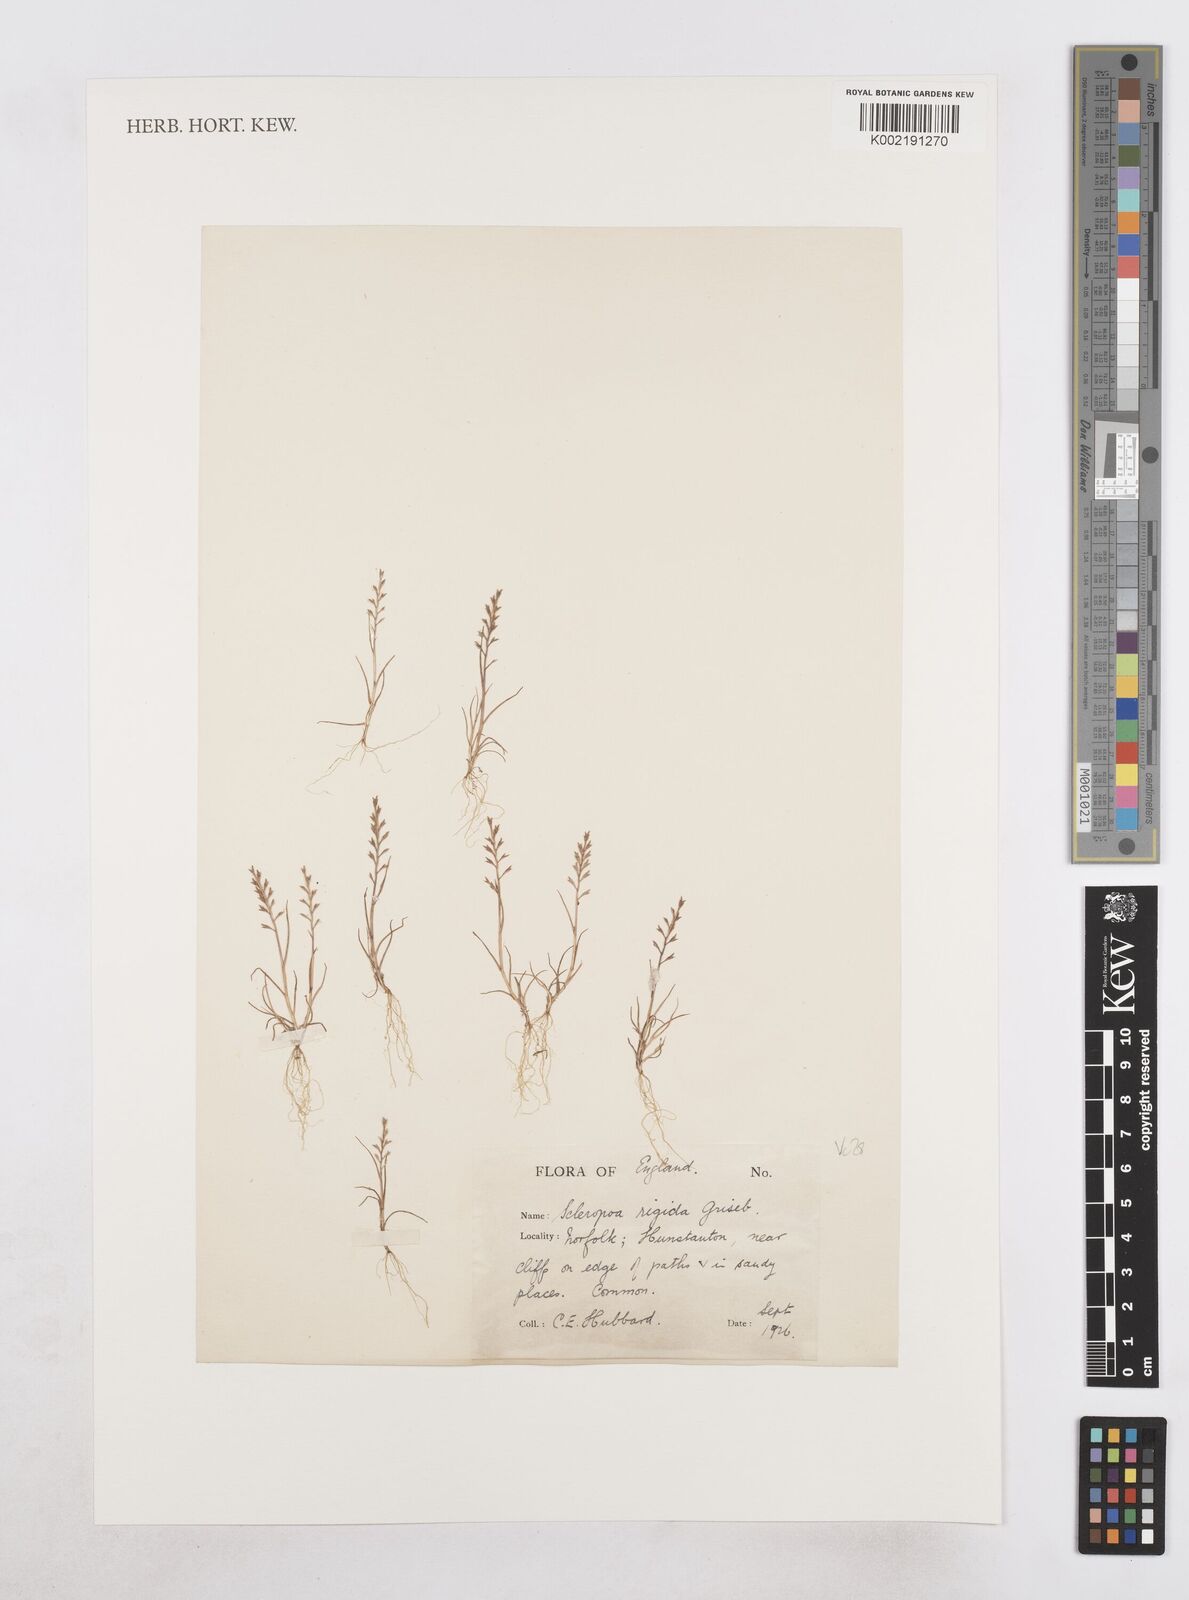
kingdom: Plantae
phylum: Tracheophyta
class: Liliopsida
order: Poales
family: Poaceae
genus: Catapodium
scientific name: Catapodium rigidum
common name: Fern-grass
